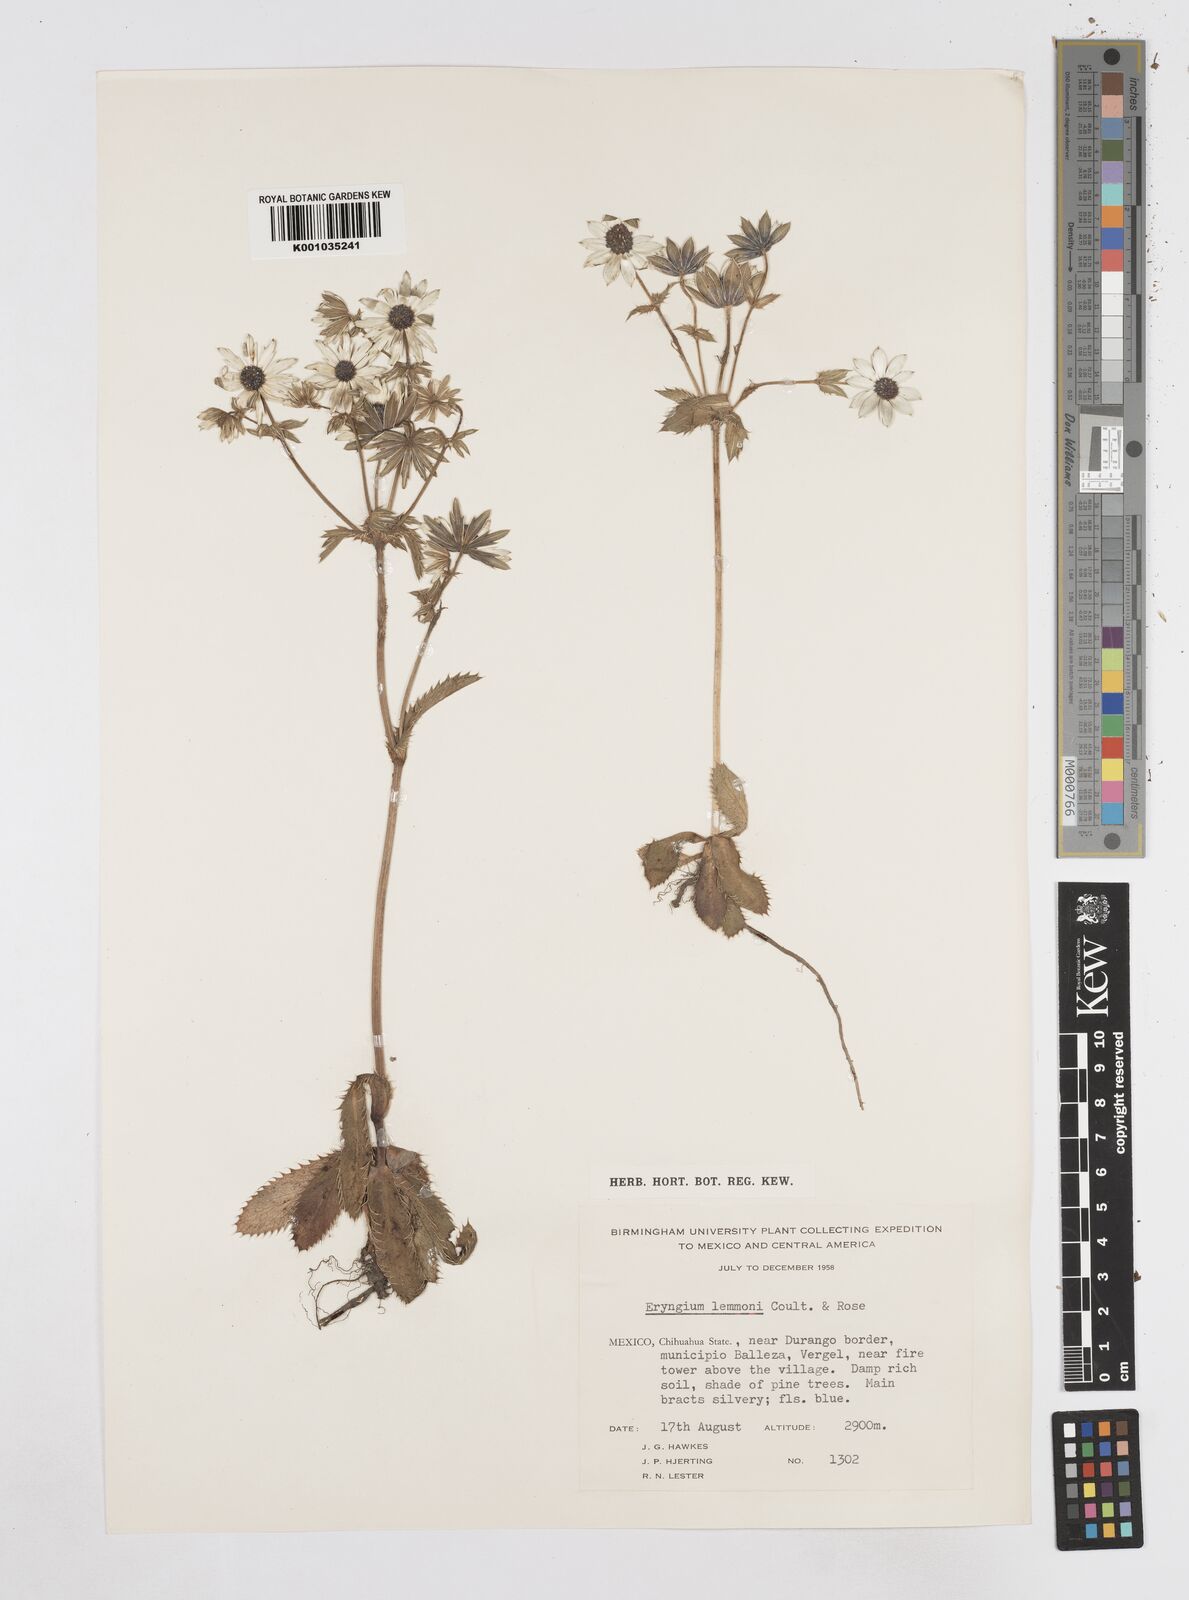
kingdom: Plantae
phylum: Tracheophyta
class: Magnoliopsida
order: Apiales
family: Apiaceae
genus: Eryngium
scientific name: Eryngium lemmonii
